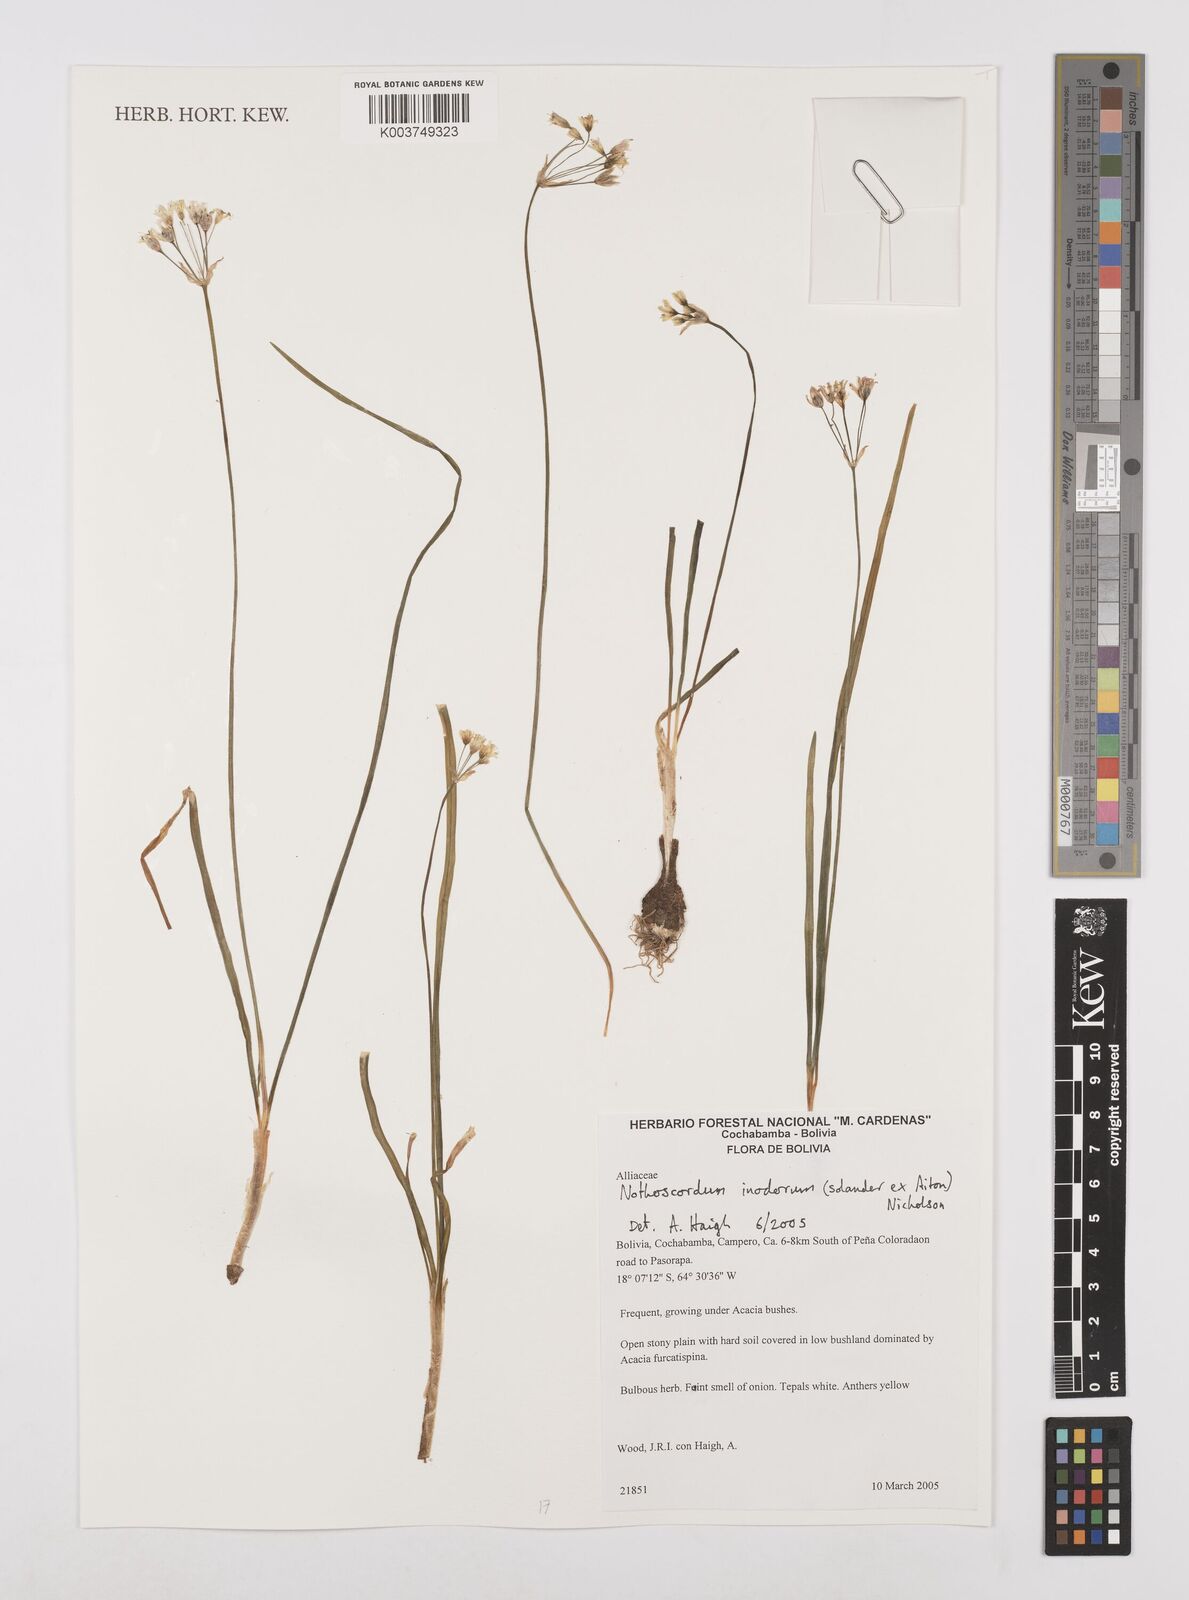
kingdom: Plantae
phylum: Tracheophyta
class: Liliopsida
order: Asparagales
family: Amaryllidaceae
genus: Allium
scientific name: Allium neapolitanum
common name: Neapolitan garlic
